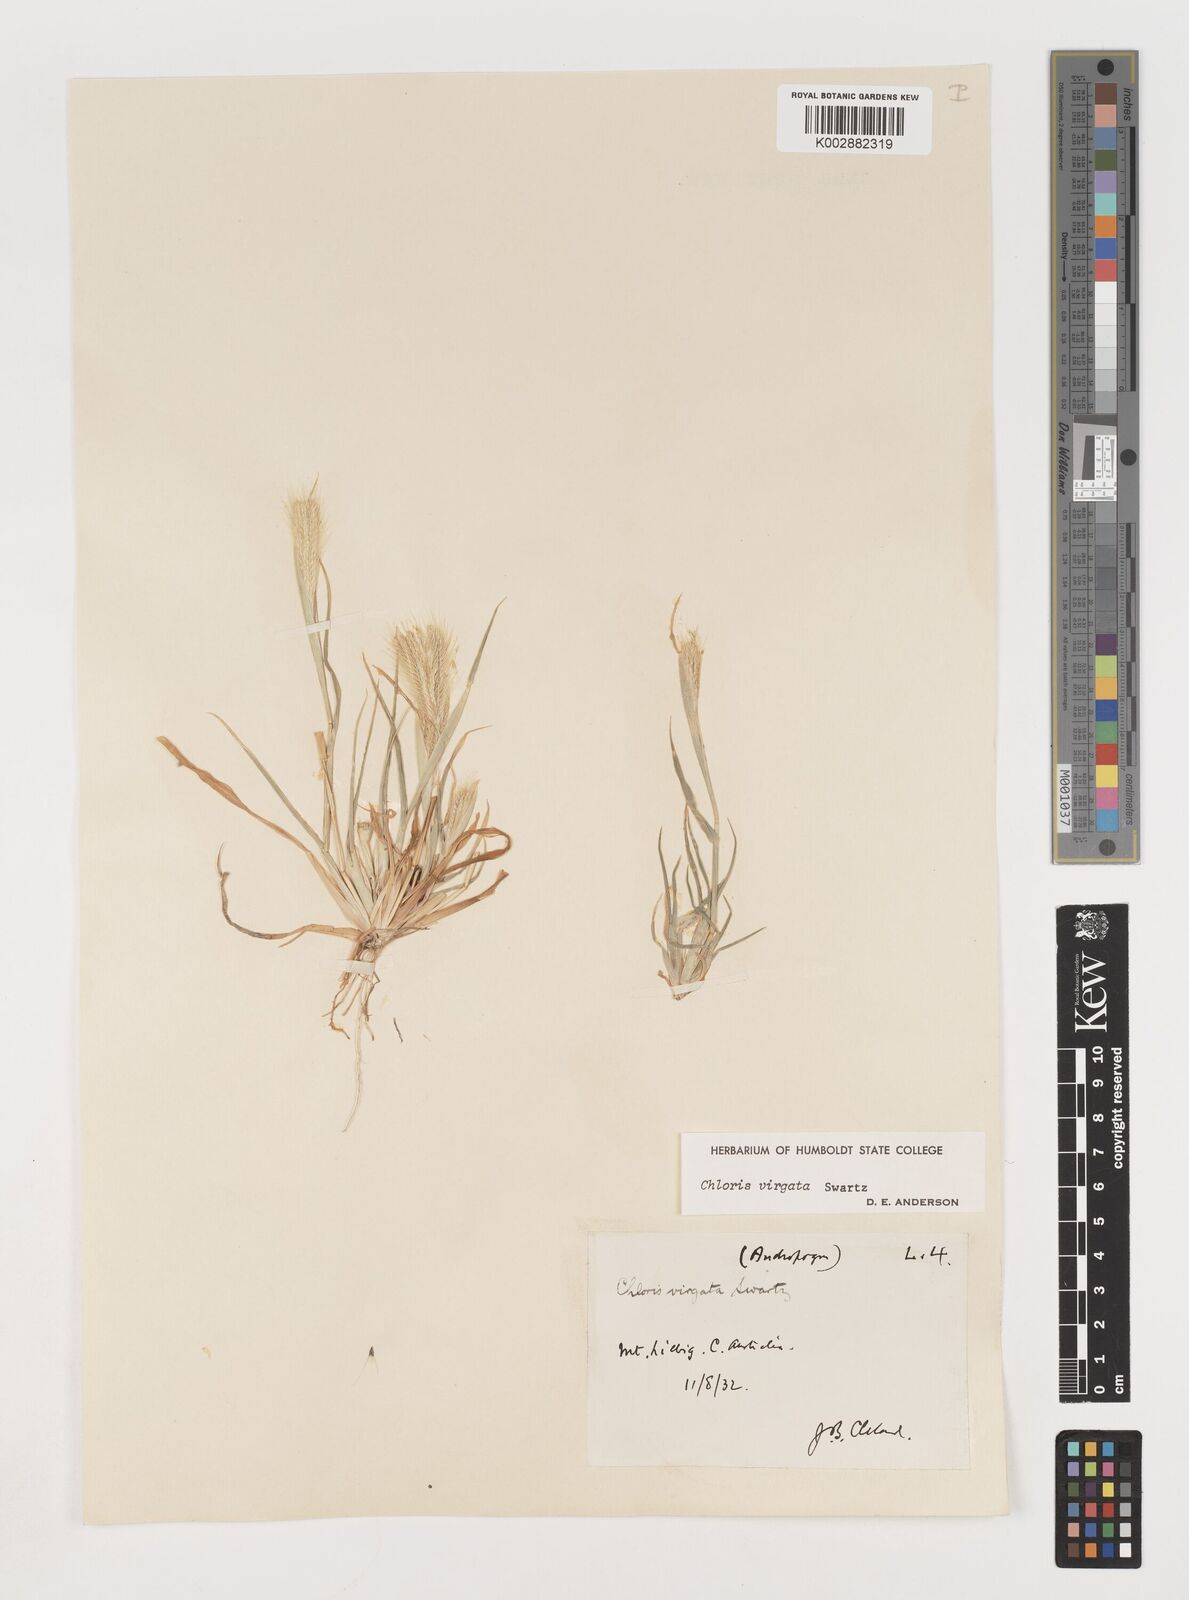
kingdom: Plantae
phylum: Tracheophyta
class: Liliopsida
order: Poales
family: Poaceae
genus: Chloris
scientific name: Chloris virgata
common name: Feathery rhodes-grass
